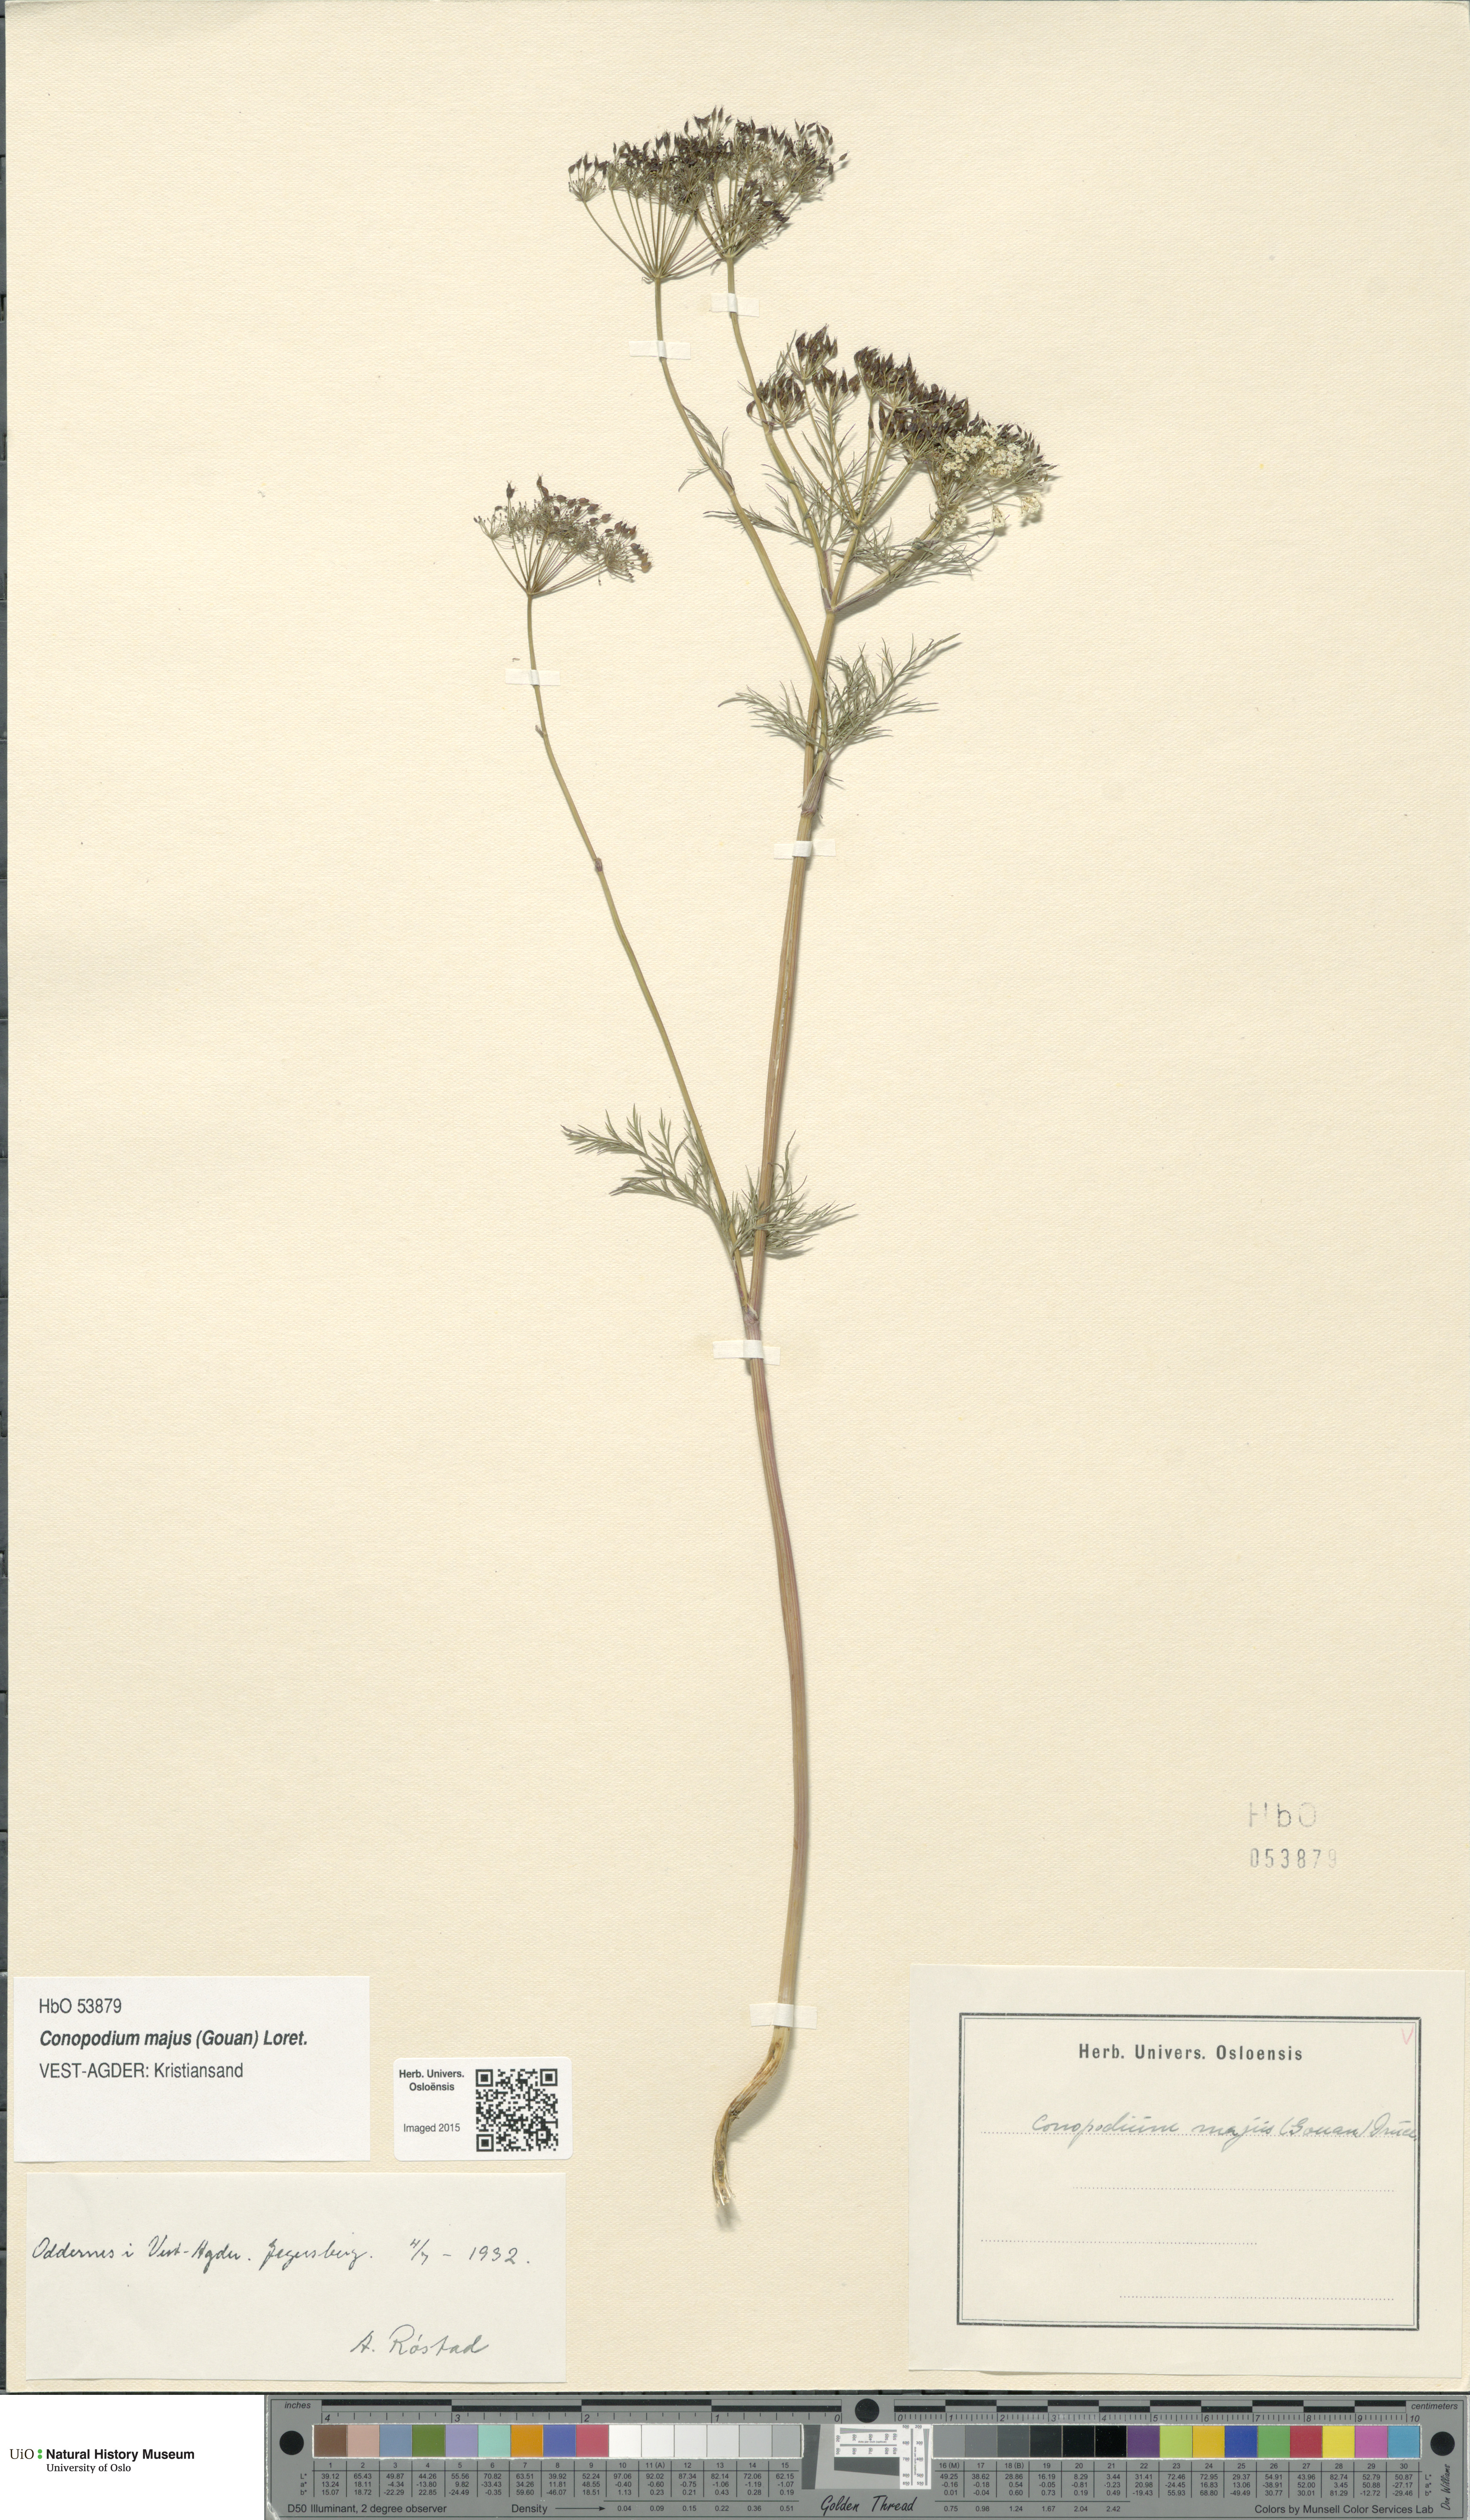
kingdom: Plantae
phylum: Tracheophyta
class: Magnoliopsida
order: Apiales
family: Apiaceae
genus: Conopodium
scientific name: Conopodium majus
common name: Pignut
